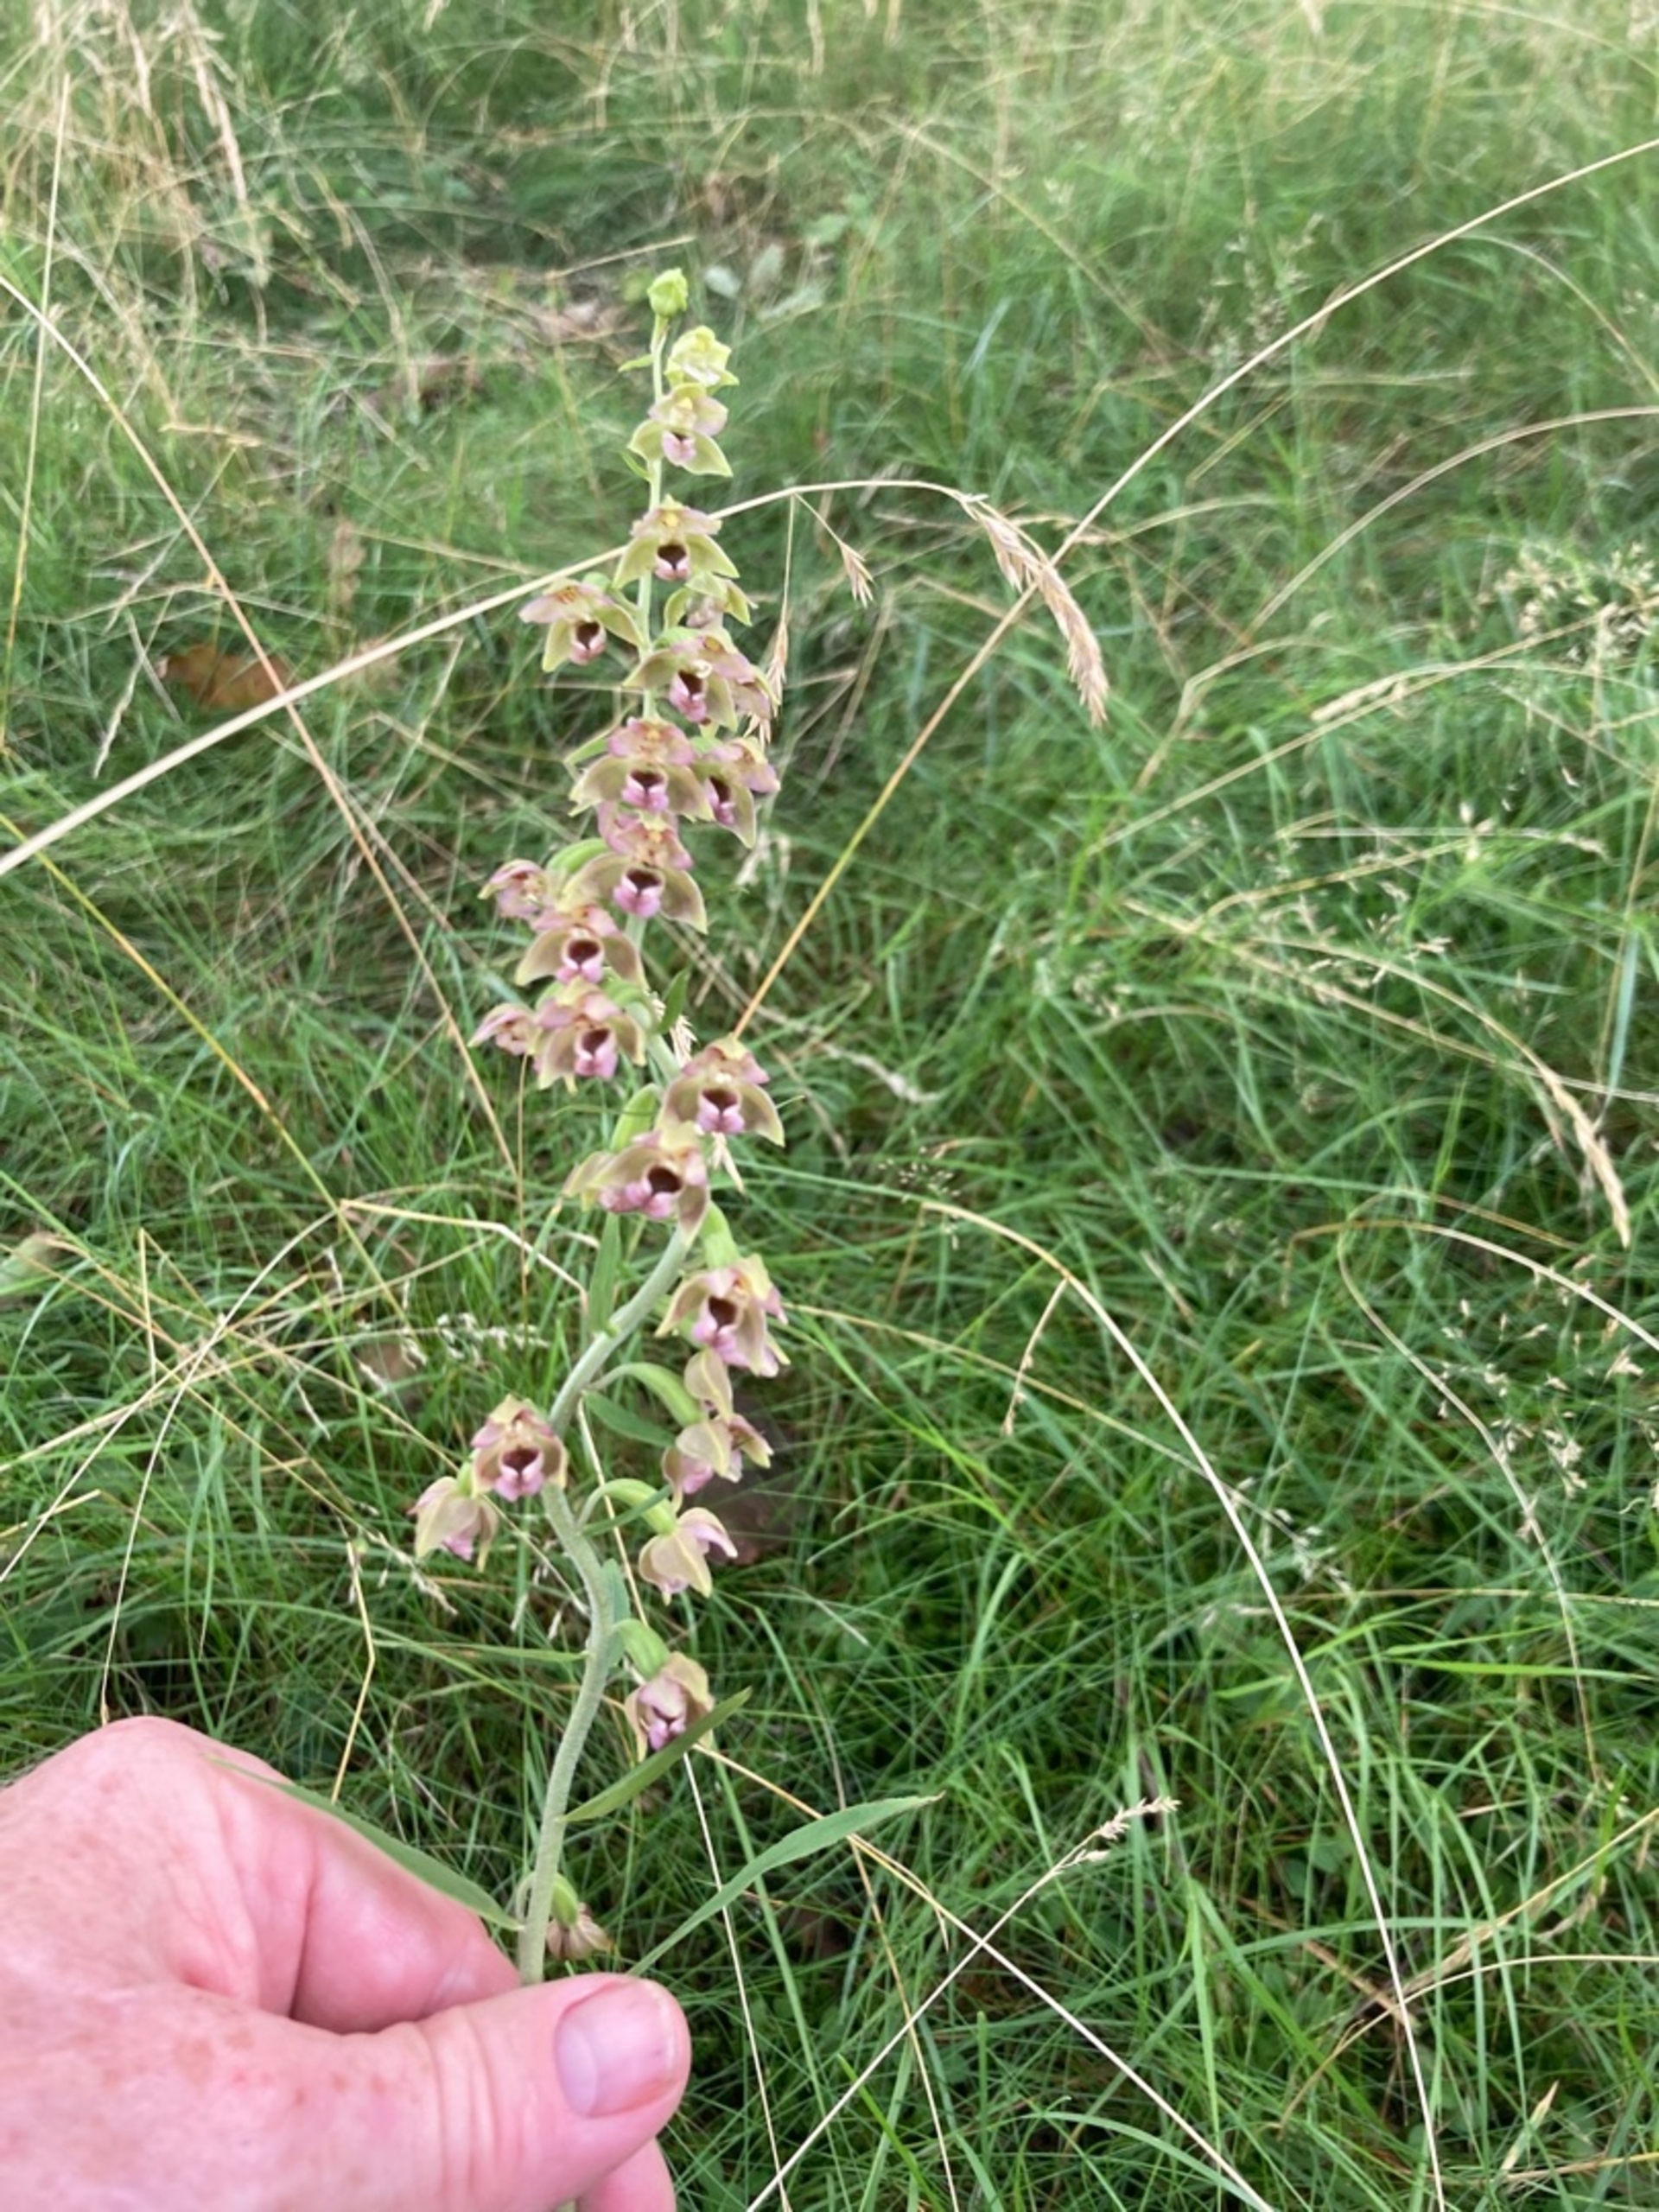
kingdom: Plantae
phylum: Tracheophyta
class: Liliopsida
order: Asparagales
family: Orchidaceae
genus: Epipactis
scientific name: Epipactis helleborine
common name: Skov-hullæbe
